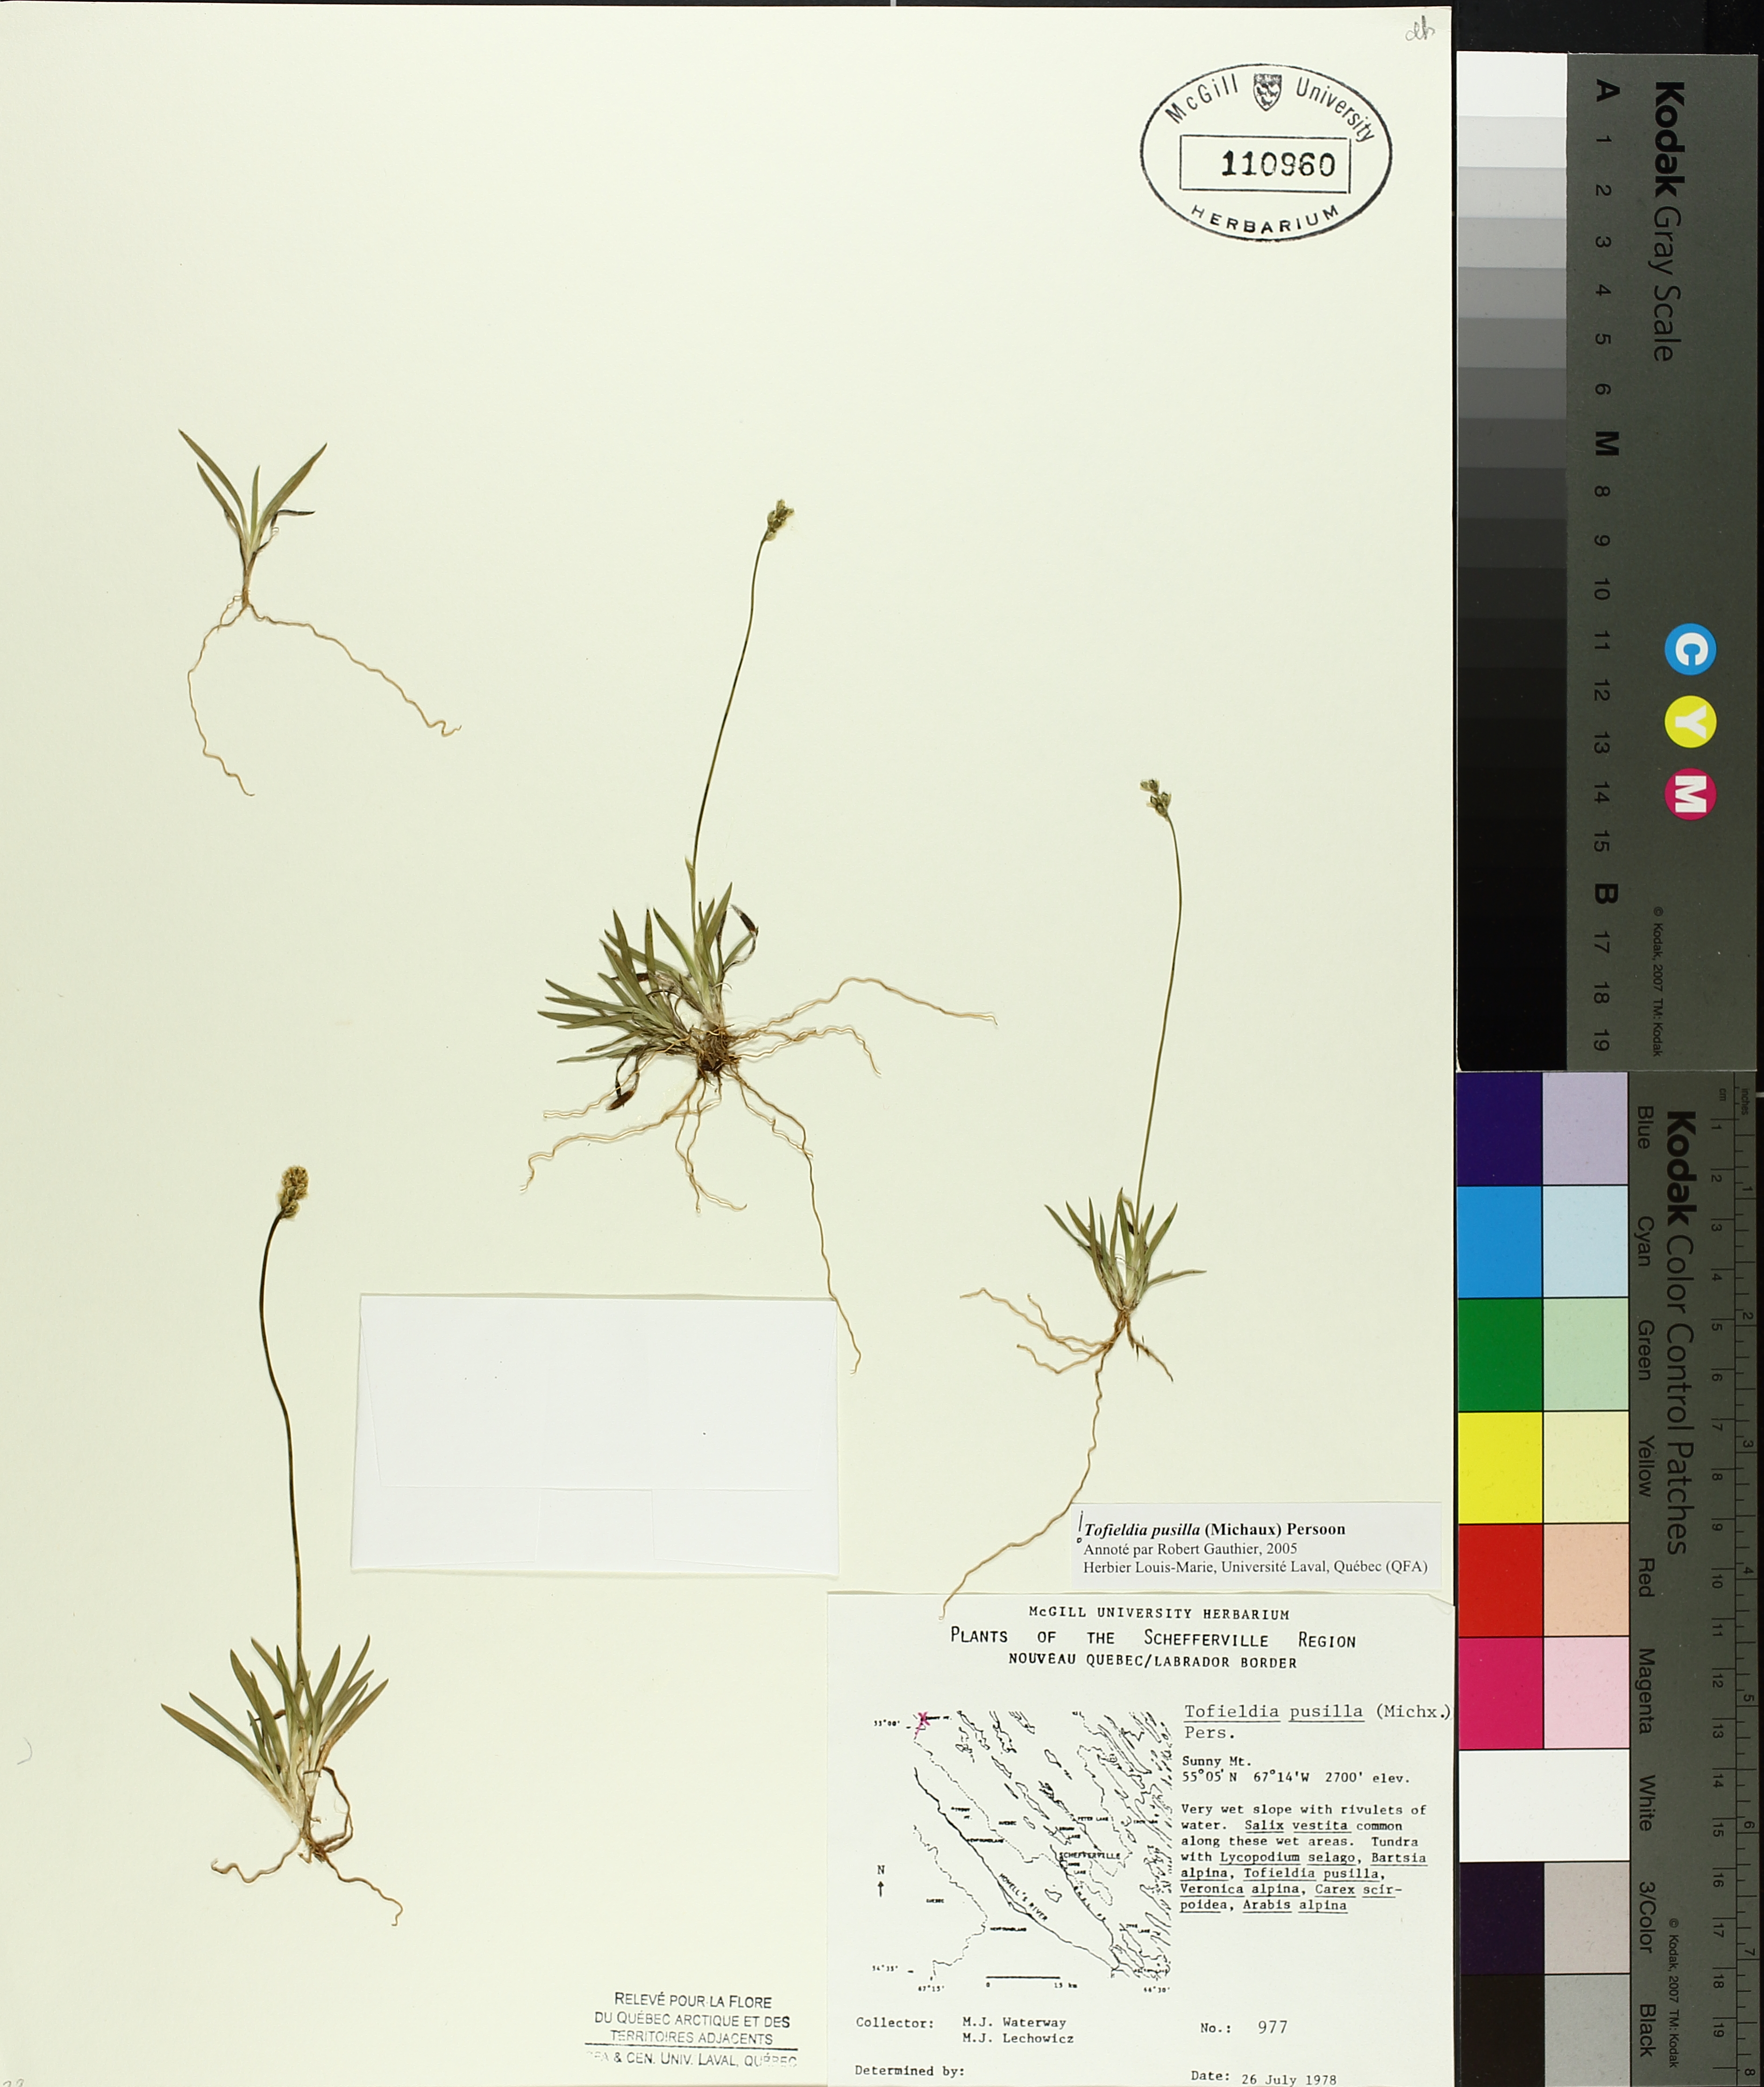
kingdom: Plantae
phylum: Tracheophyta
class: Liliopsida
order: Alismatales
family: Tofieldiaceae
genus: Tofieldia
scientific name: Tofieldia pusilla
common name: Scottish false asphodel
